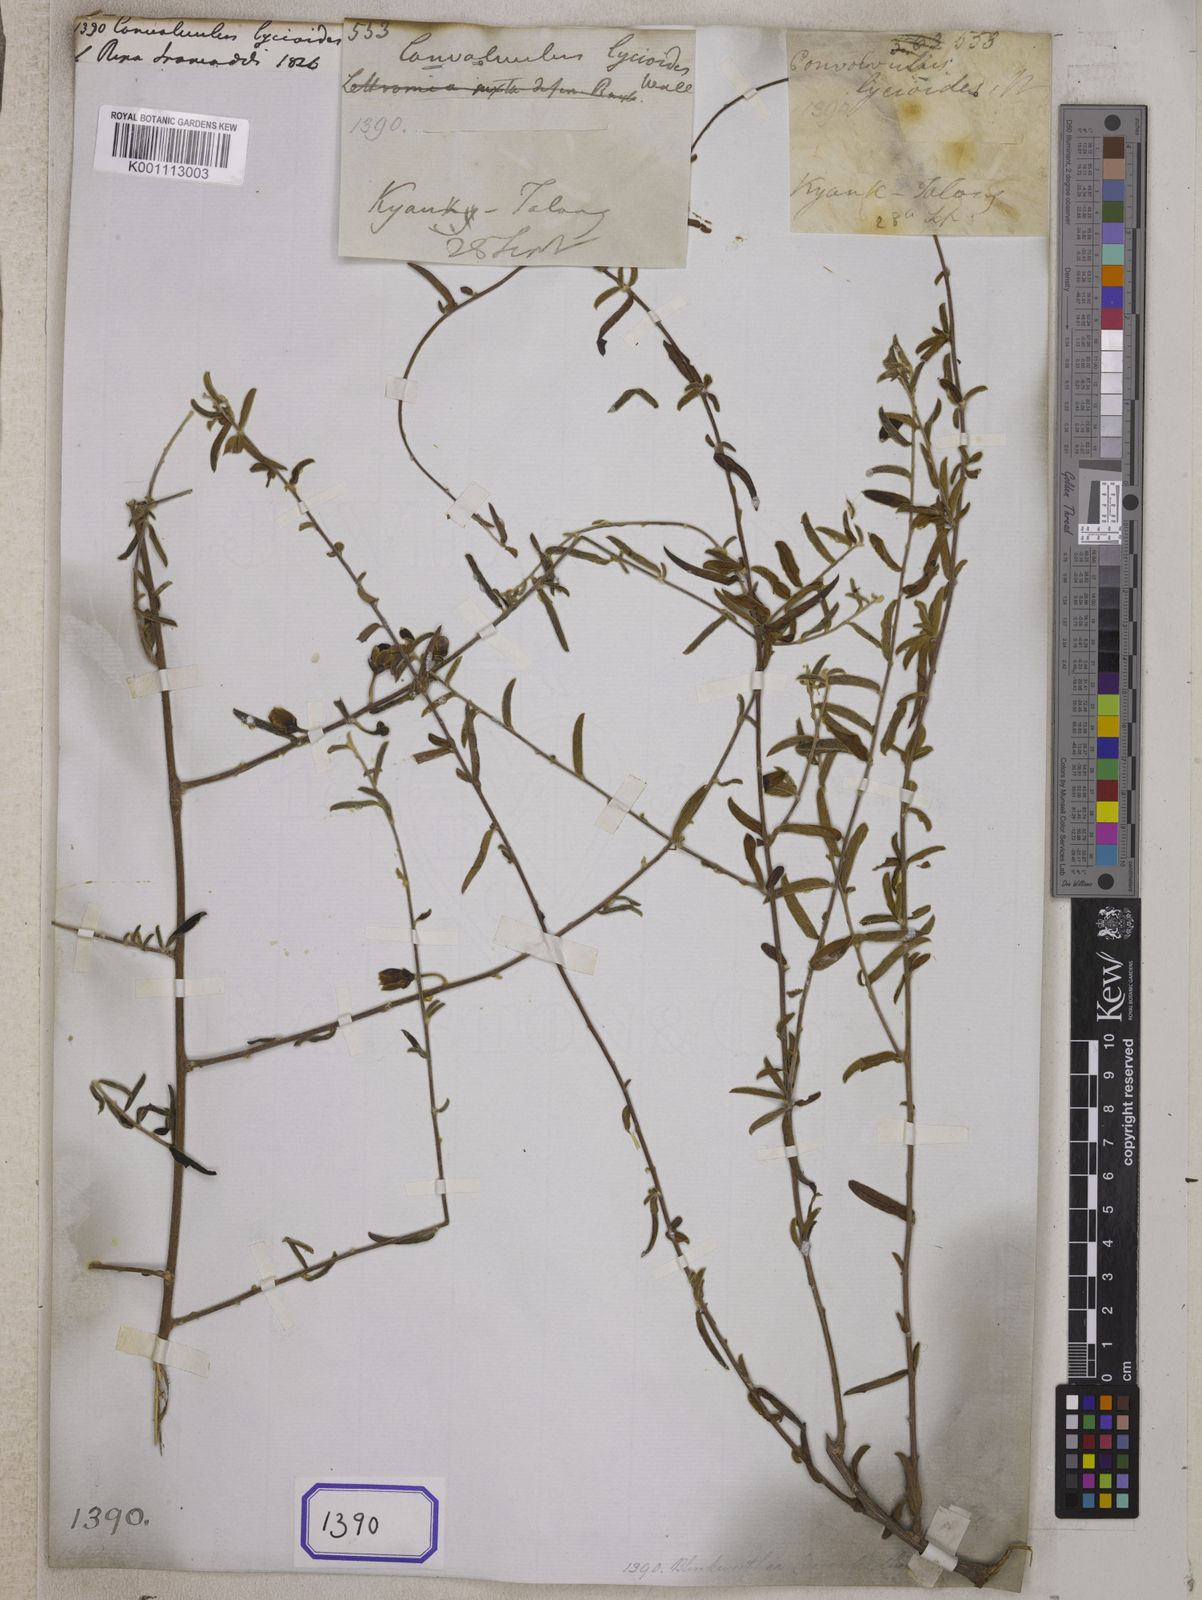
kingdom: Plantae
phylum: Tracheophyta
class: Magnoliopsida
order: Solanales
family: Convolvulaceae
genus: Convolvulus
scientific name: Convolvulus
